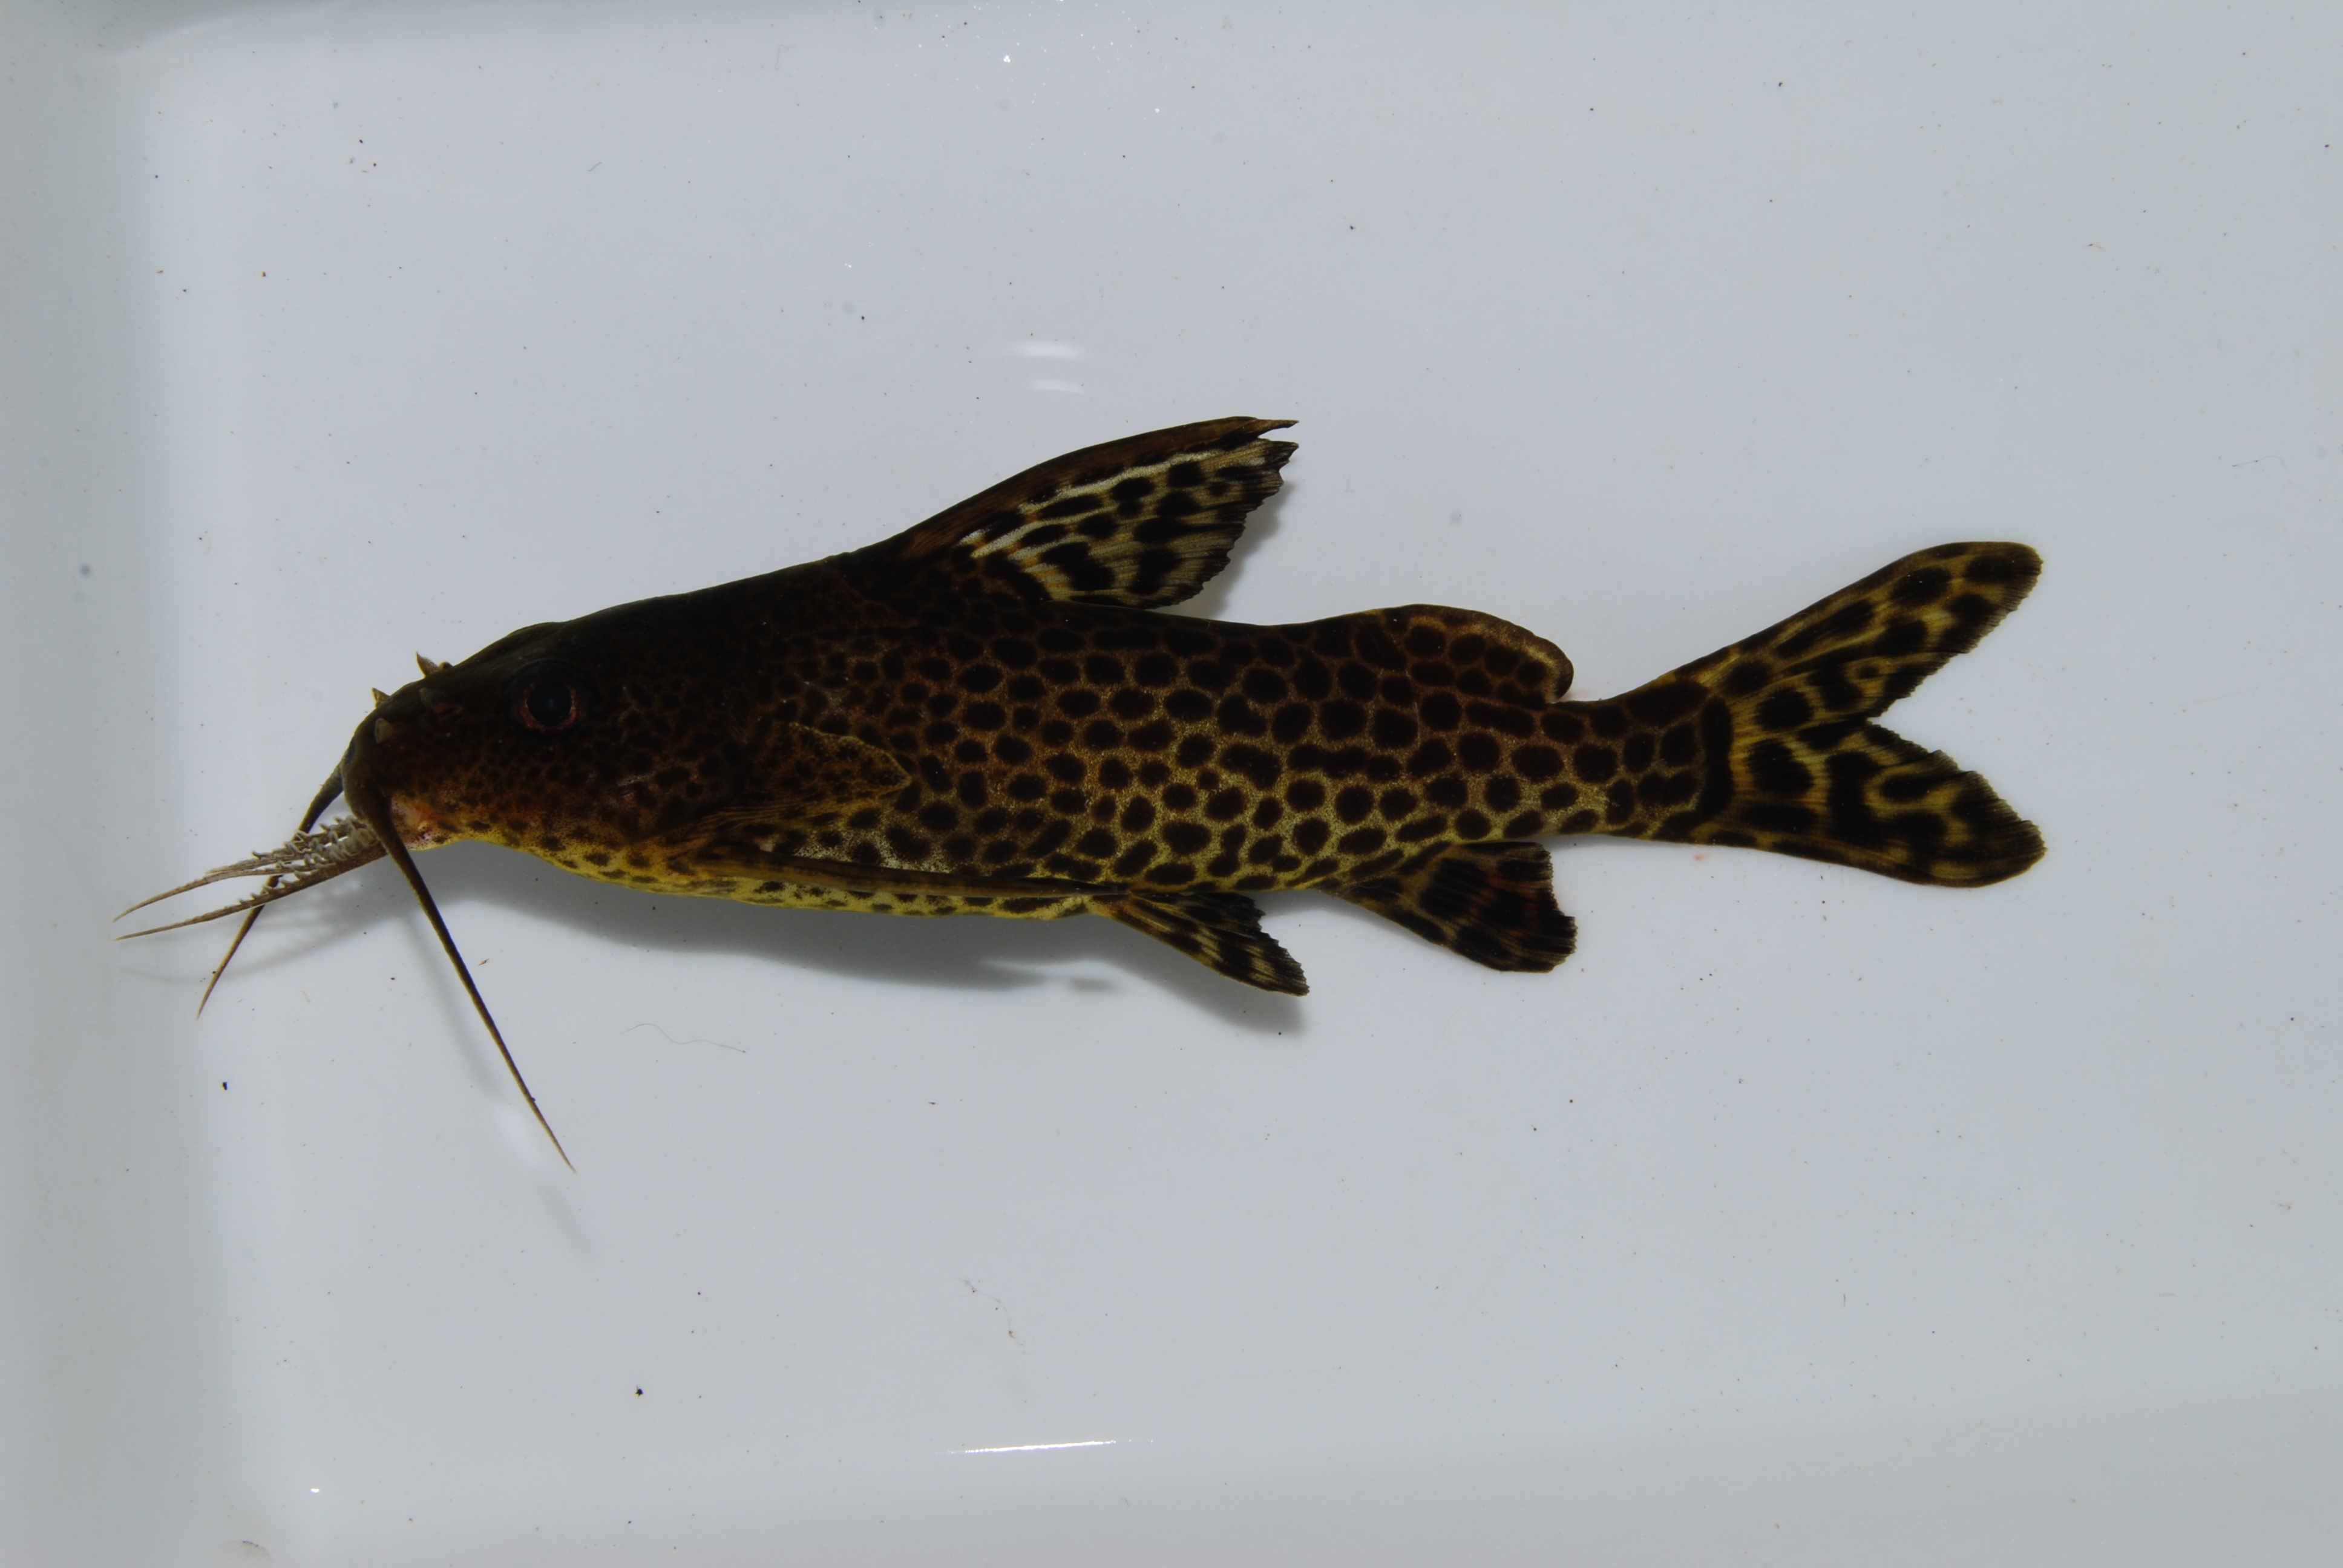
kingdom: Animalia
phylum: Chordata
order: Siluriformes
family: Mochokidae
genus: Synodontis
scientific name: Synodontis
